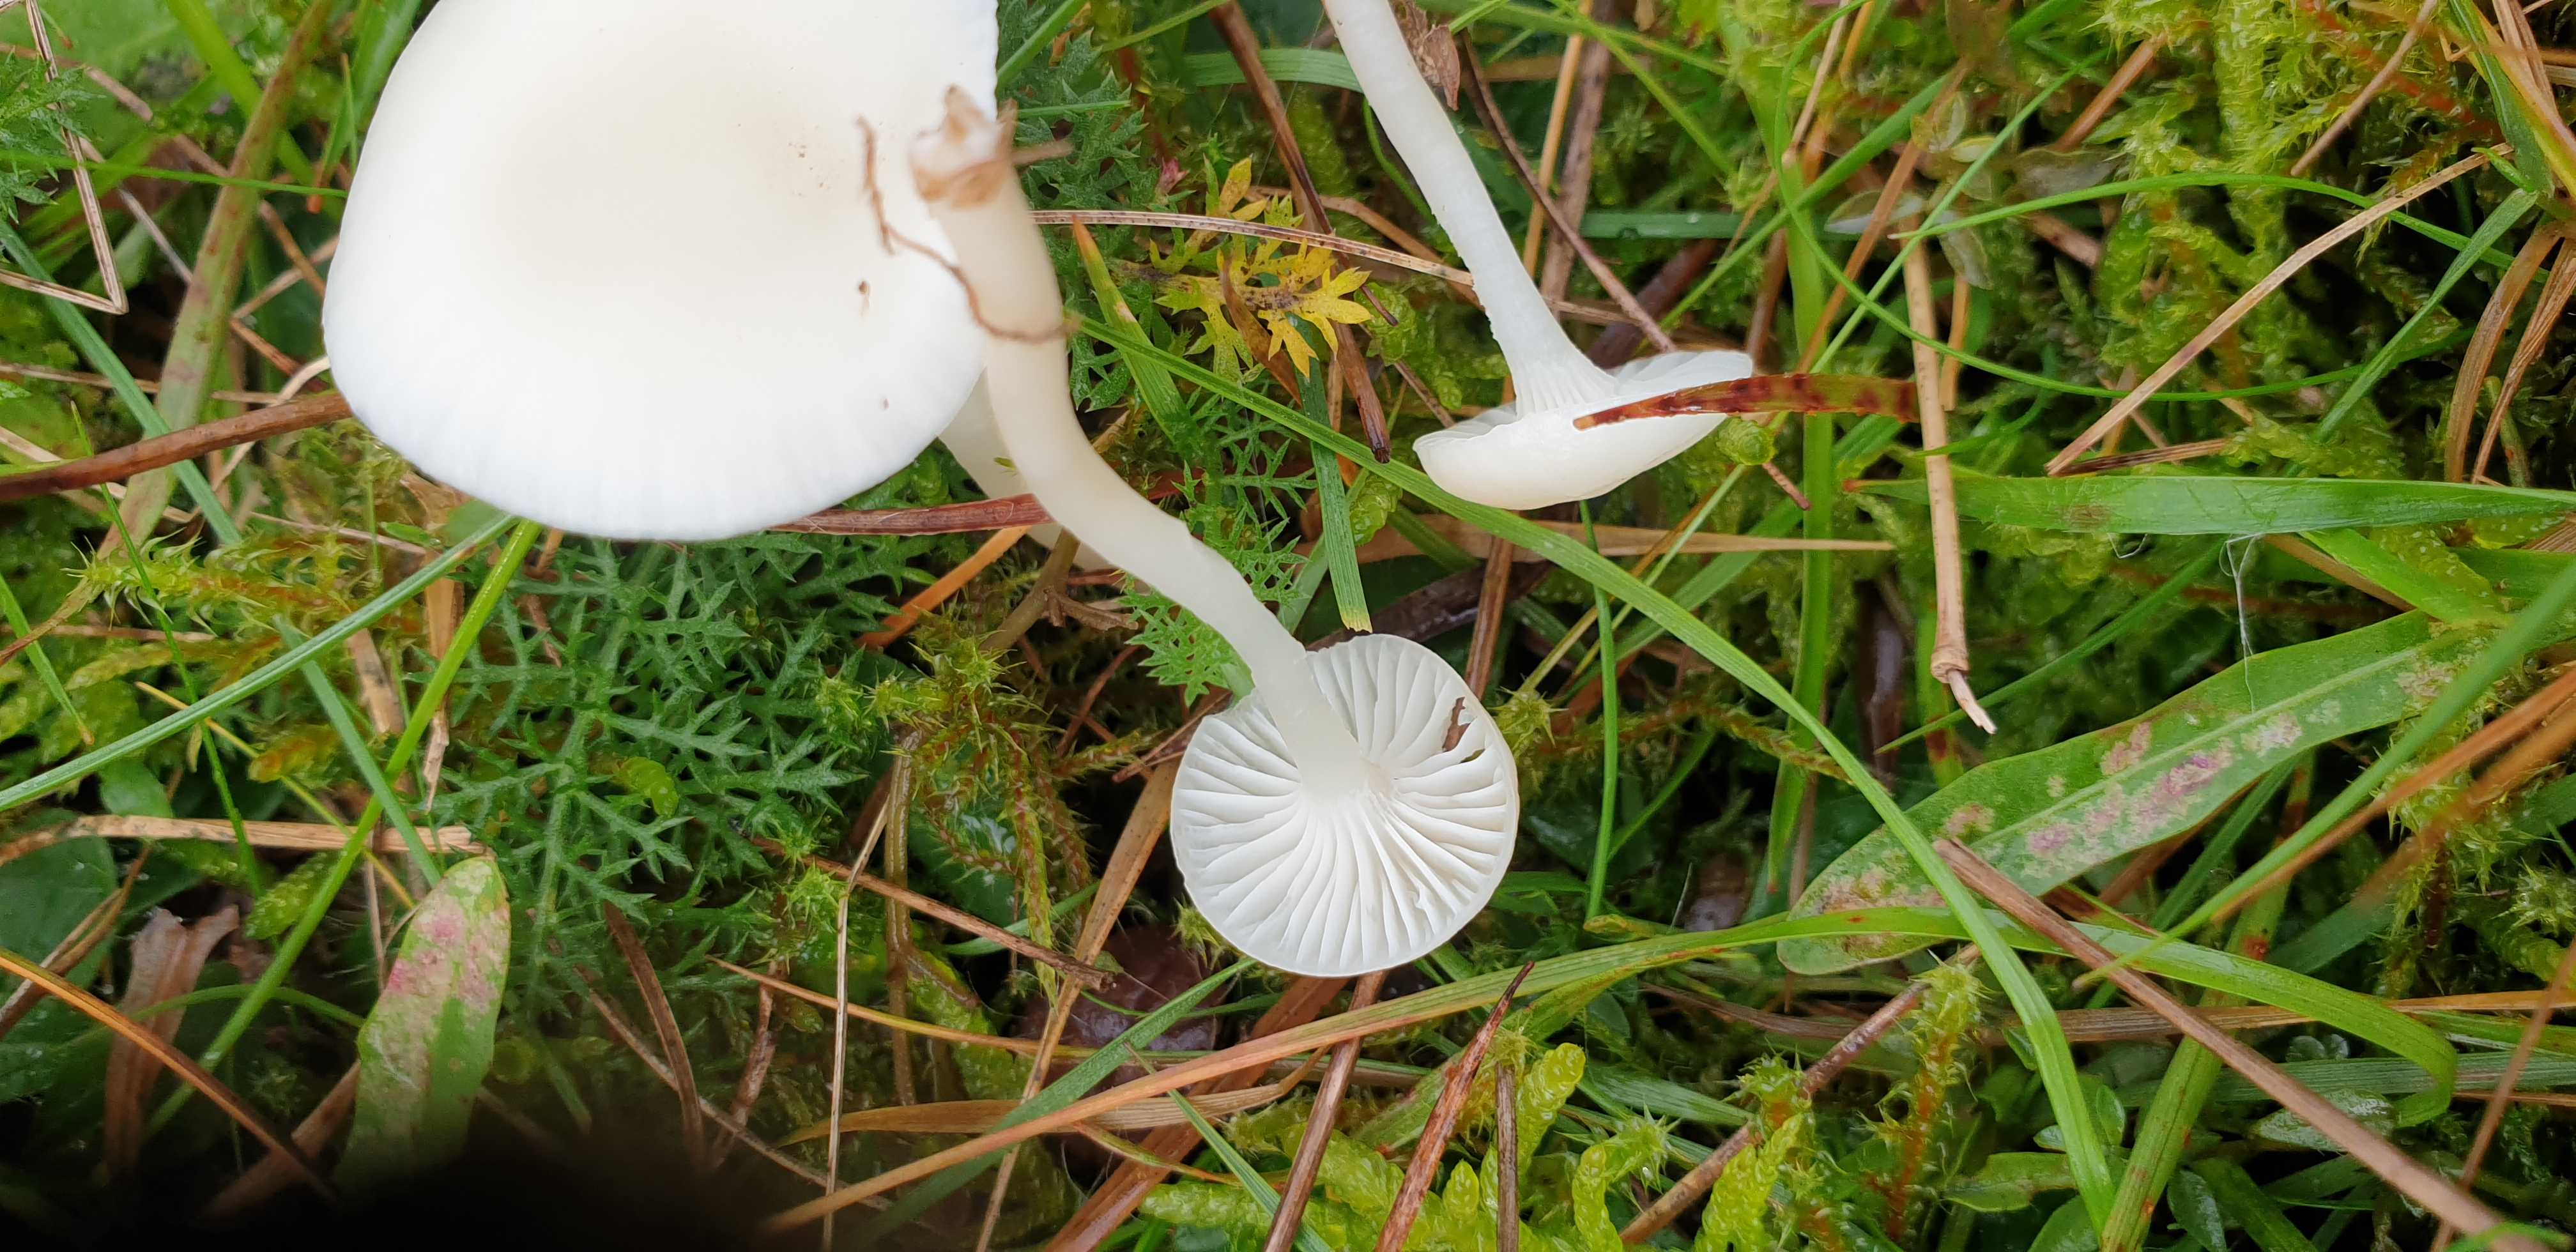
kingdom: Fungi
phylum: Basidiomycota
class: Agaricomycetes
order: Agaricales
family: Hygrophoraceae
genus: Cuphophyllus
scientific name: Cuphophyllus virgineus
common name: snehvid vokshat
